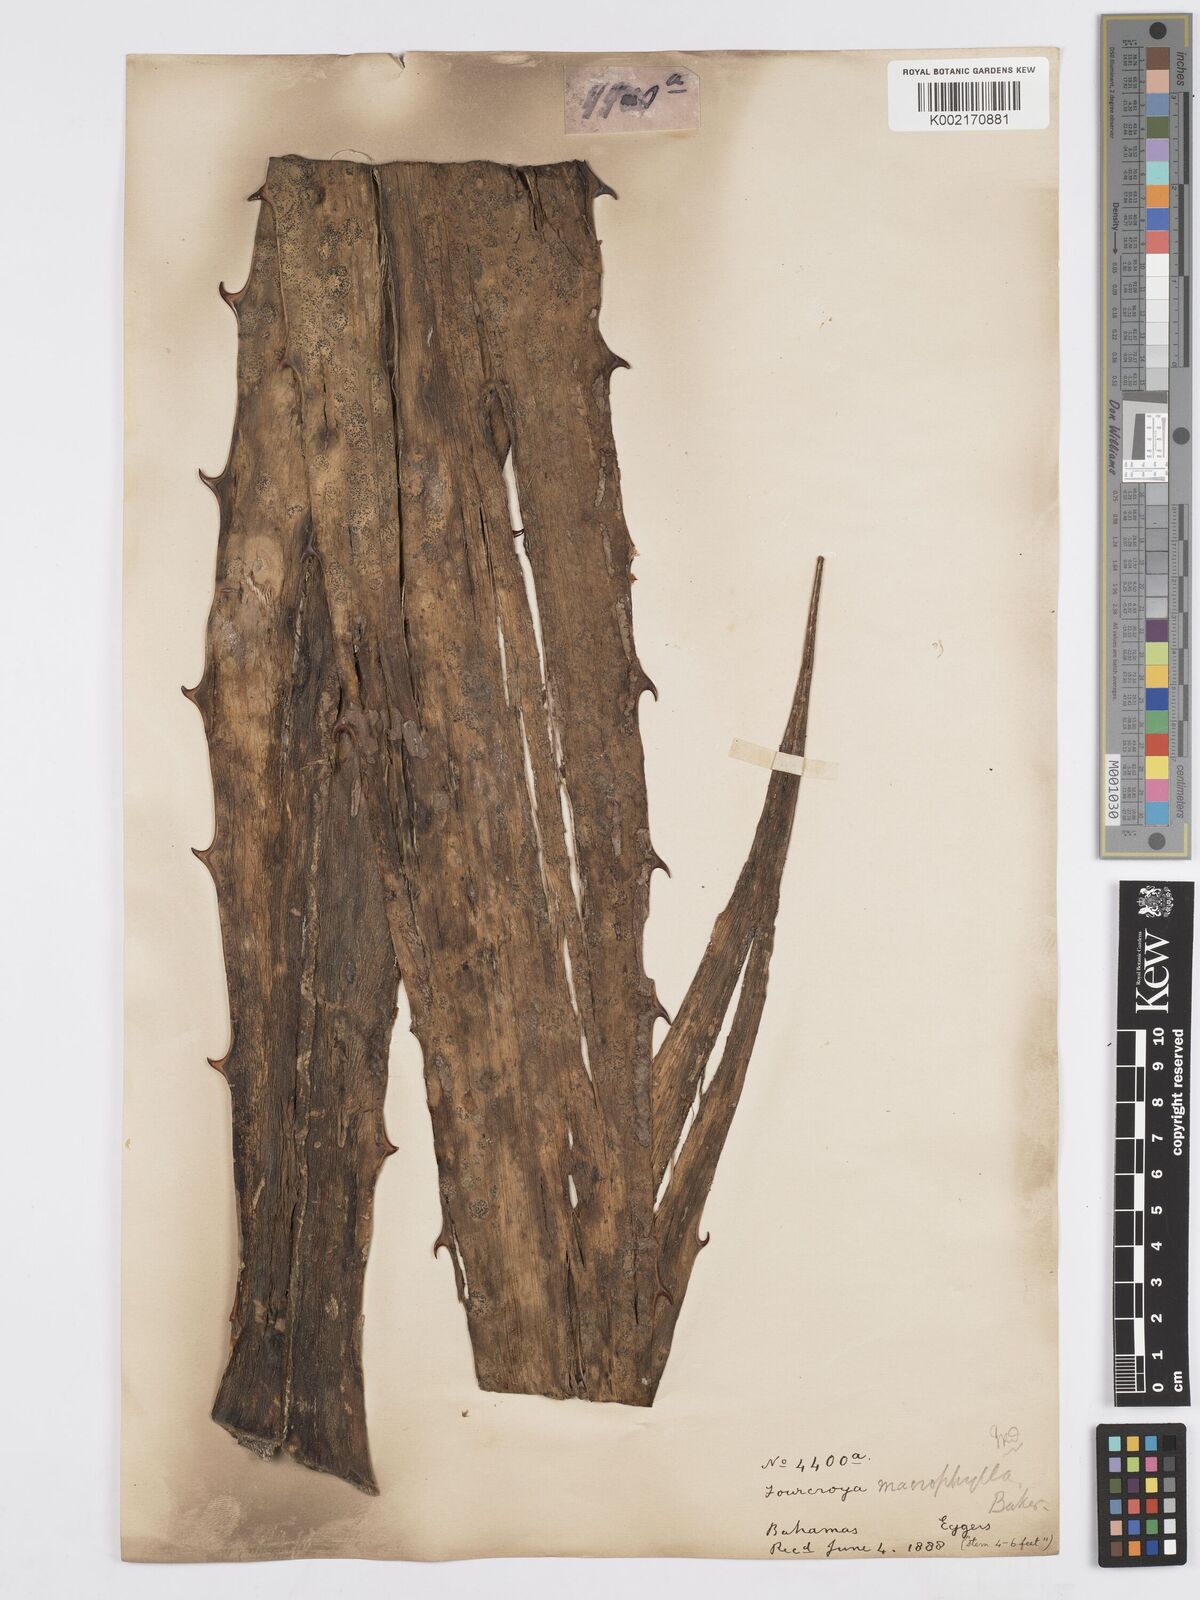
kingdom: Plantae
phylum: Tracheophyta
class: Liliopsida
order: Asparagales
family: Asparagaceae
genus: Furcraea
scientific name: Furcraea hexapetala
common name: Cuban-hemp
